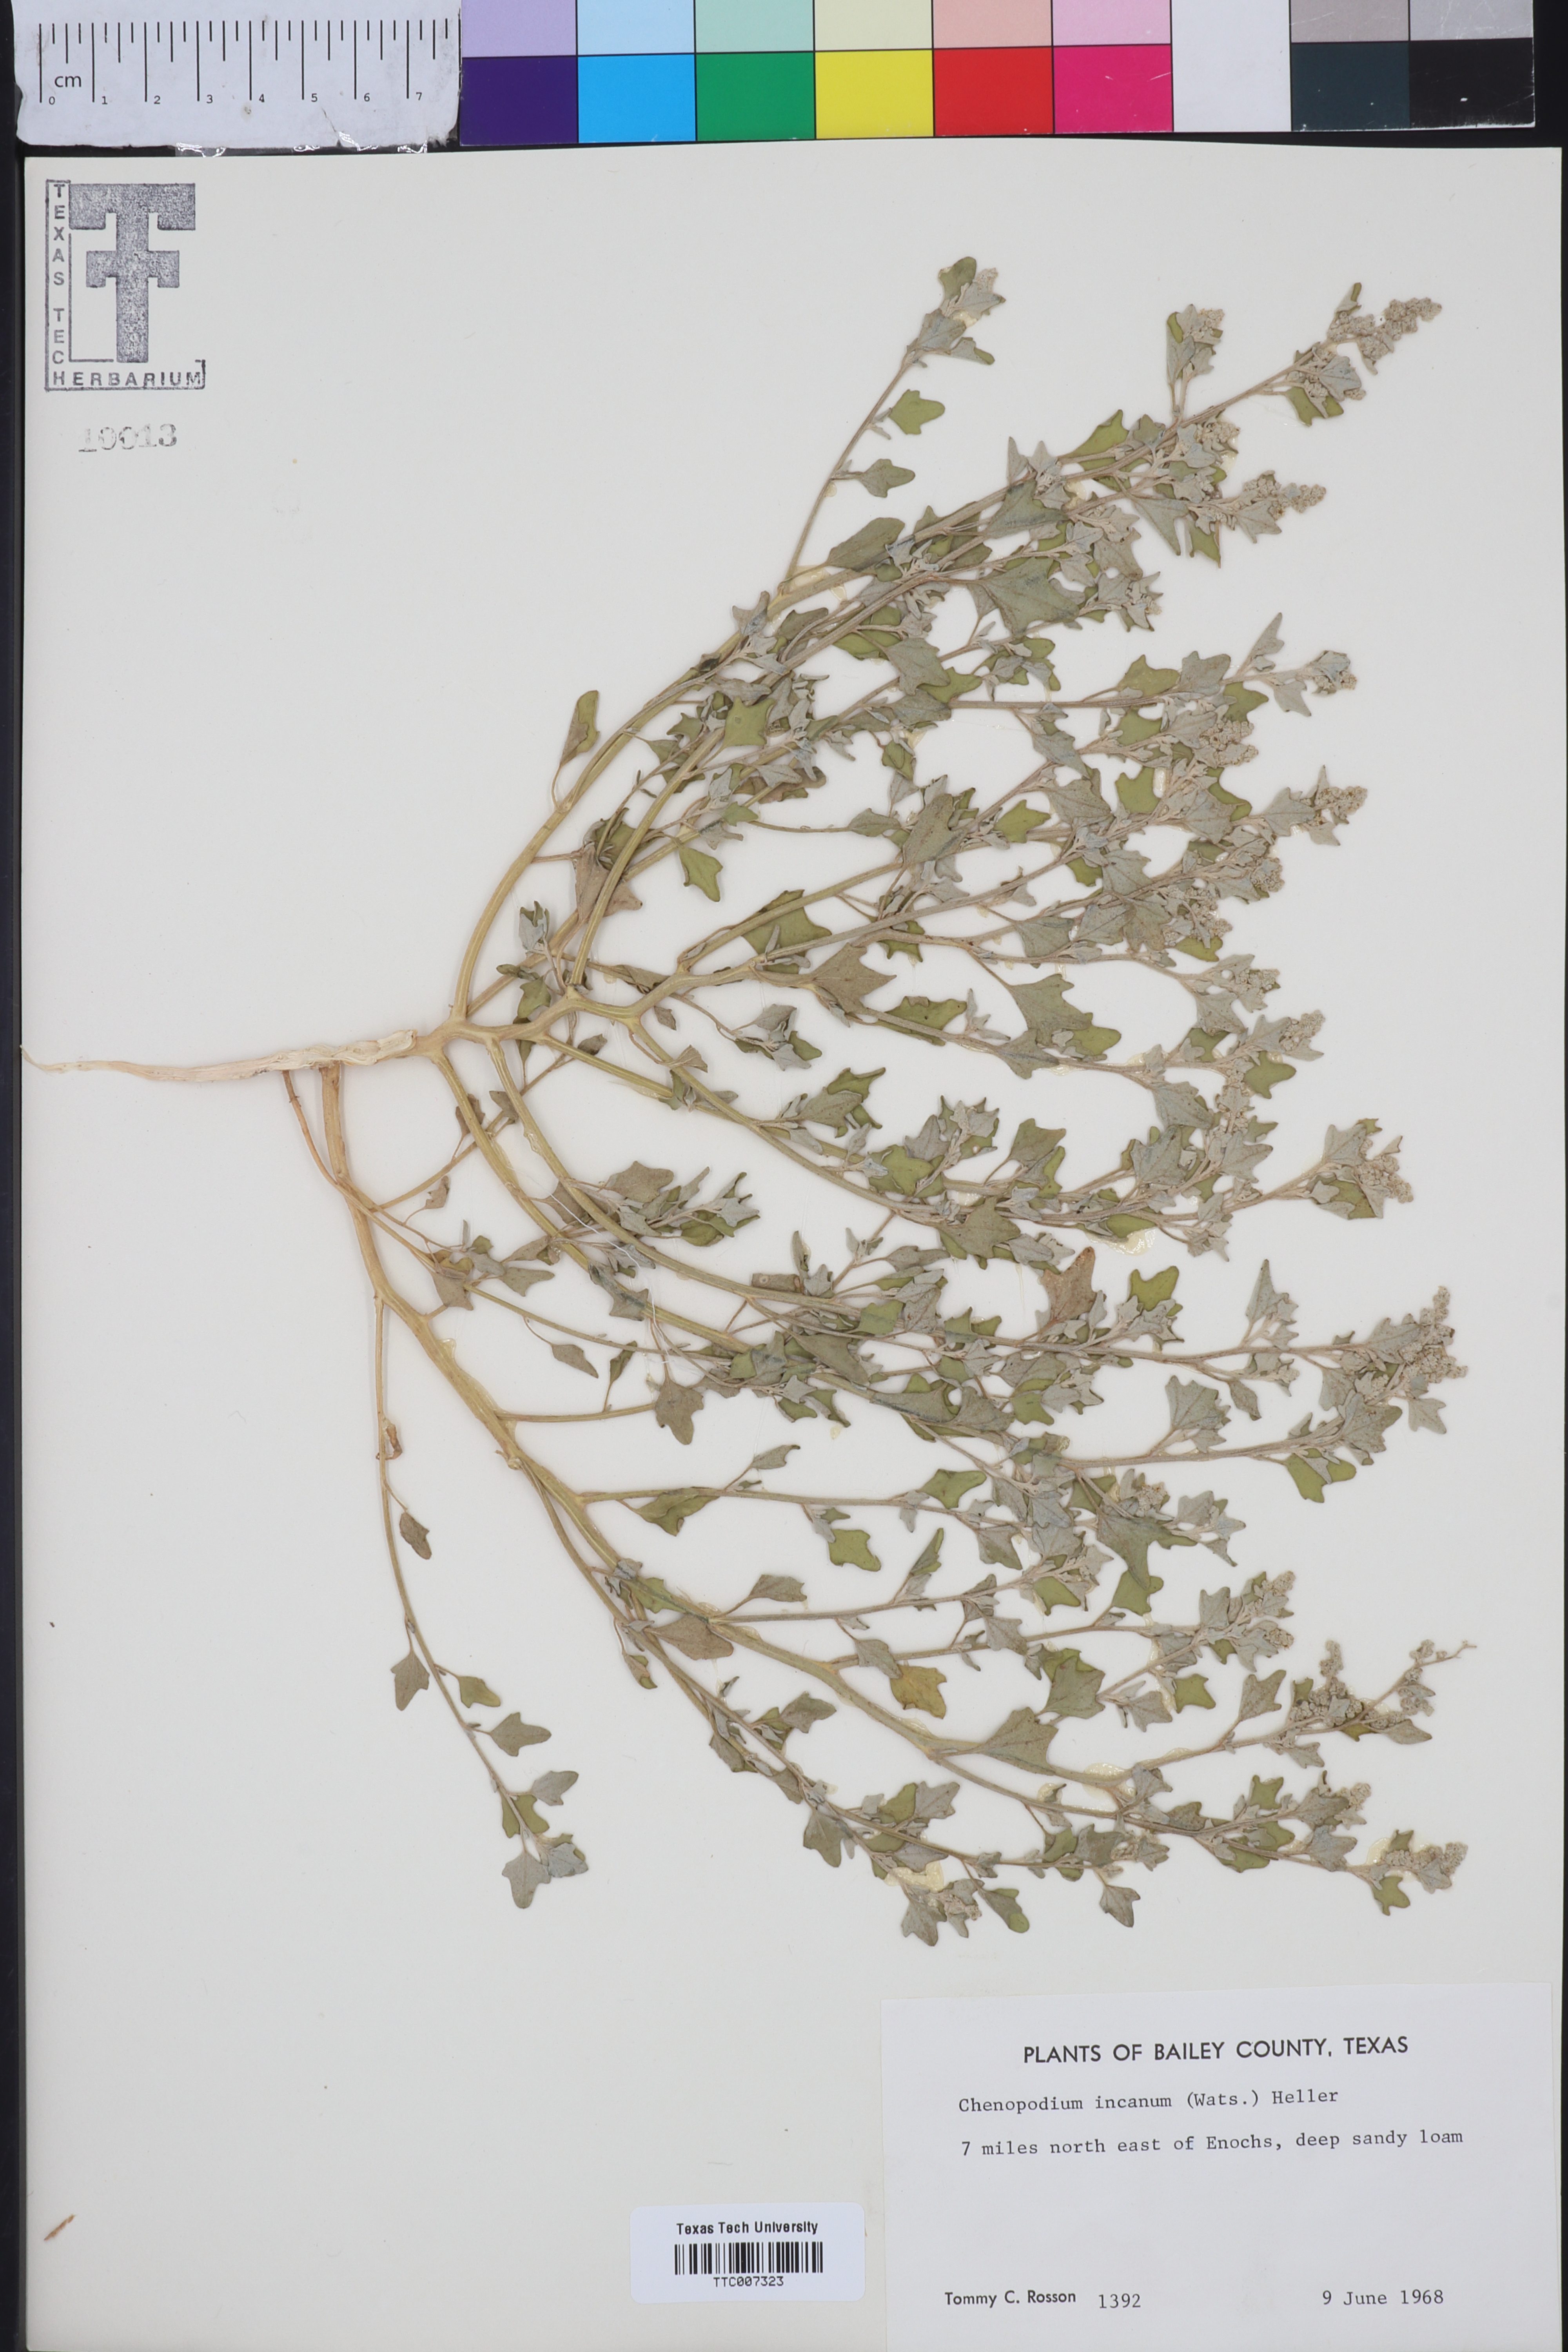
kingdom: Plantae
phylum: Tracheophyta
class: Magnoliopsida
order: Caryophyllales
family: Amaranthaceae
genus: Chenopodium
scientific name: Chenopodium incanum
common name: Hoary goosefoot
